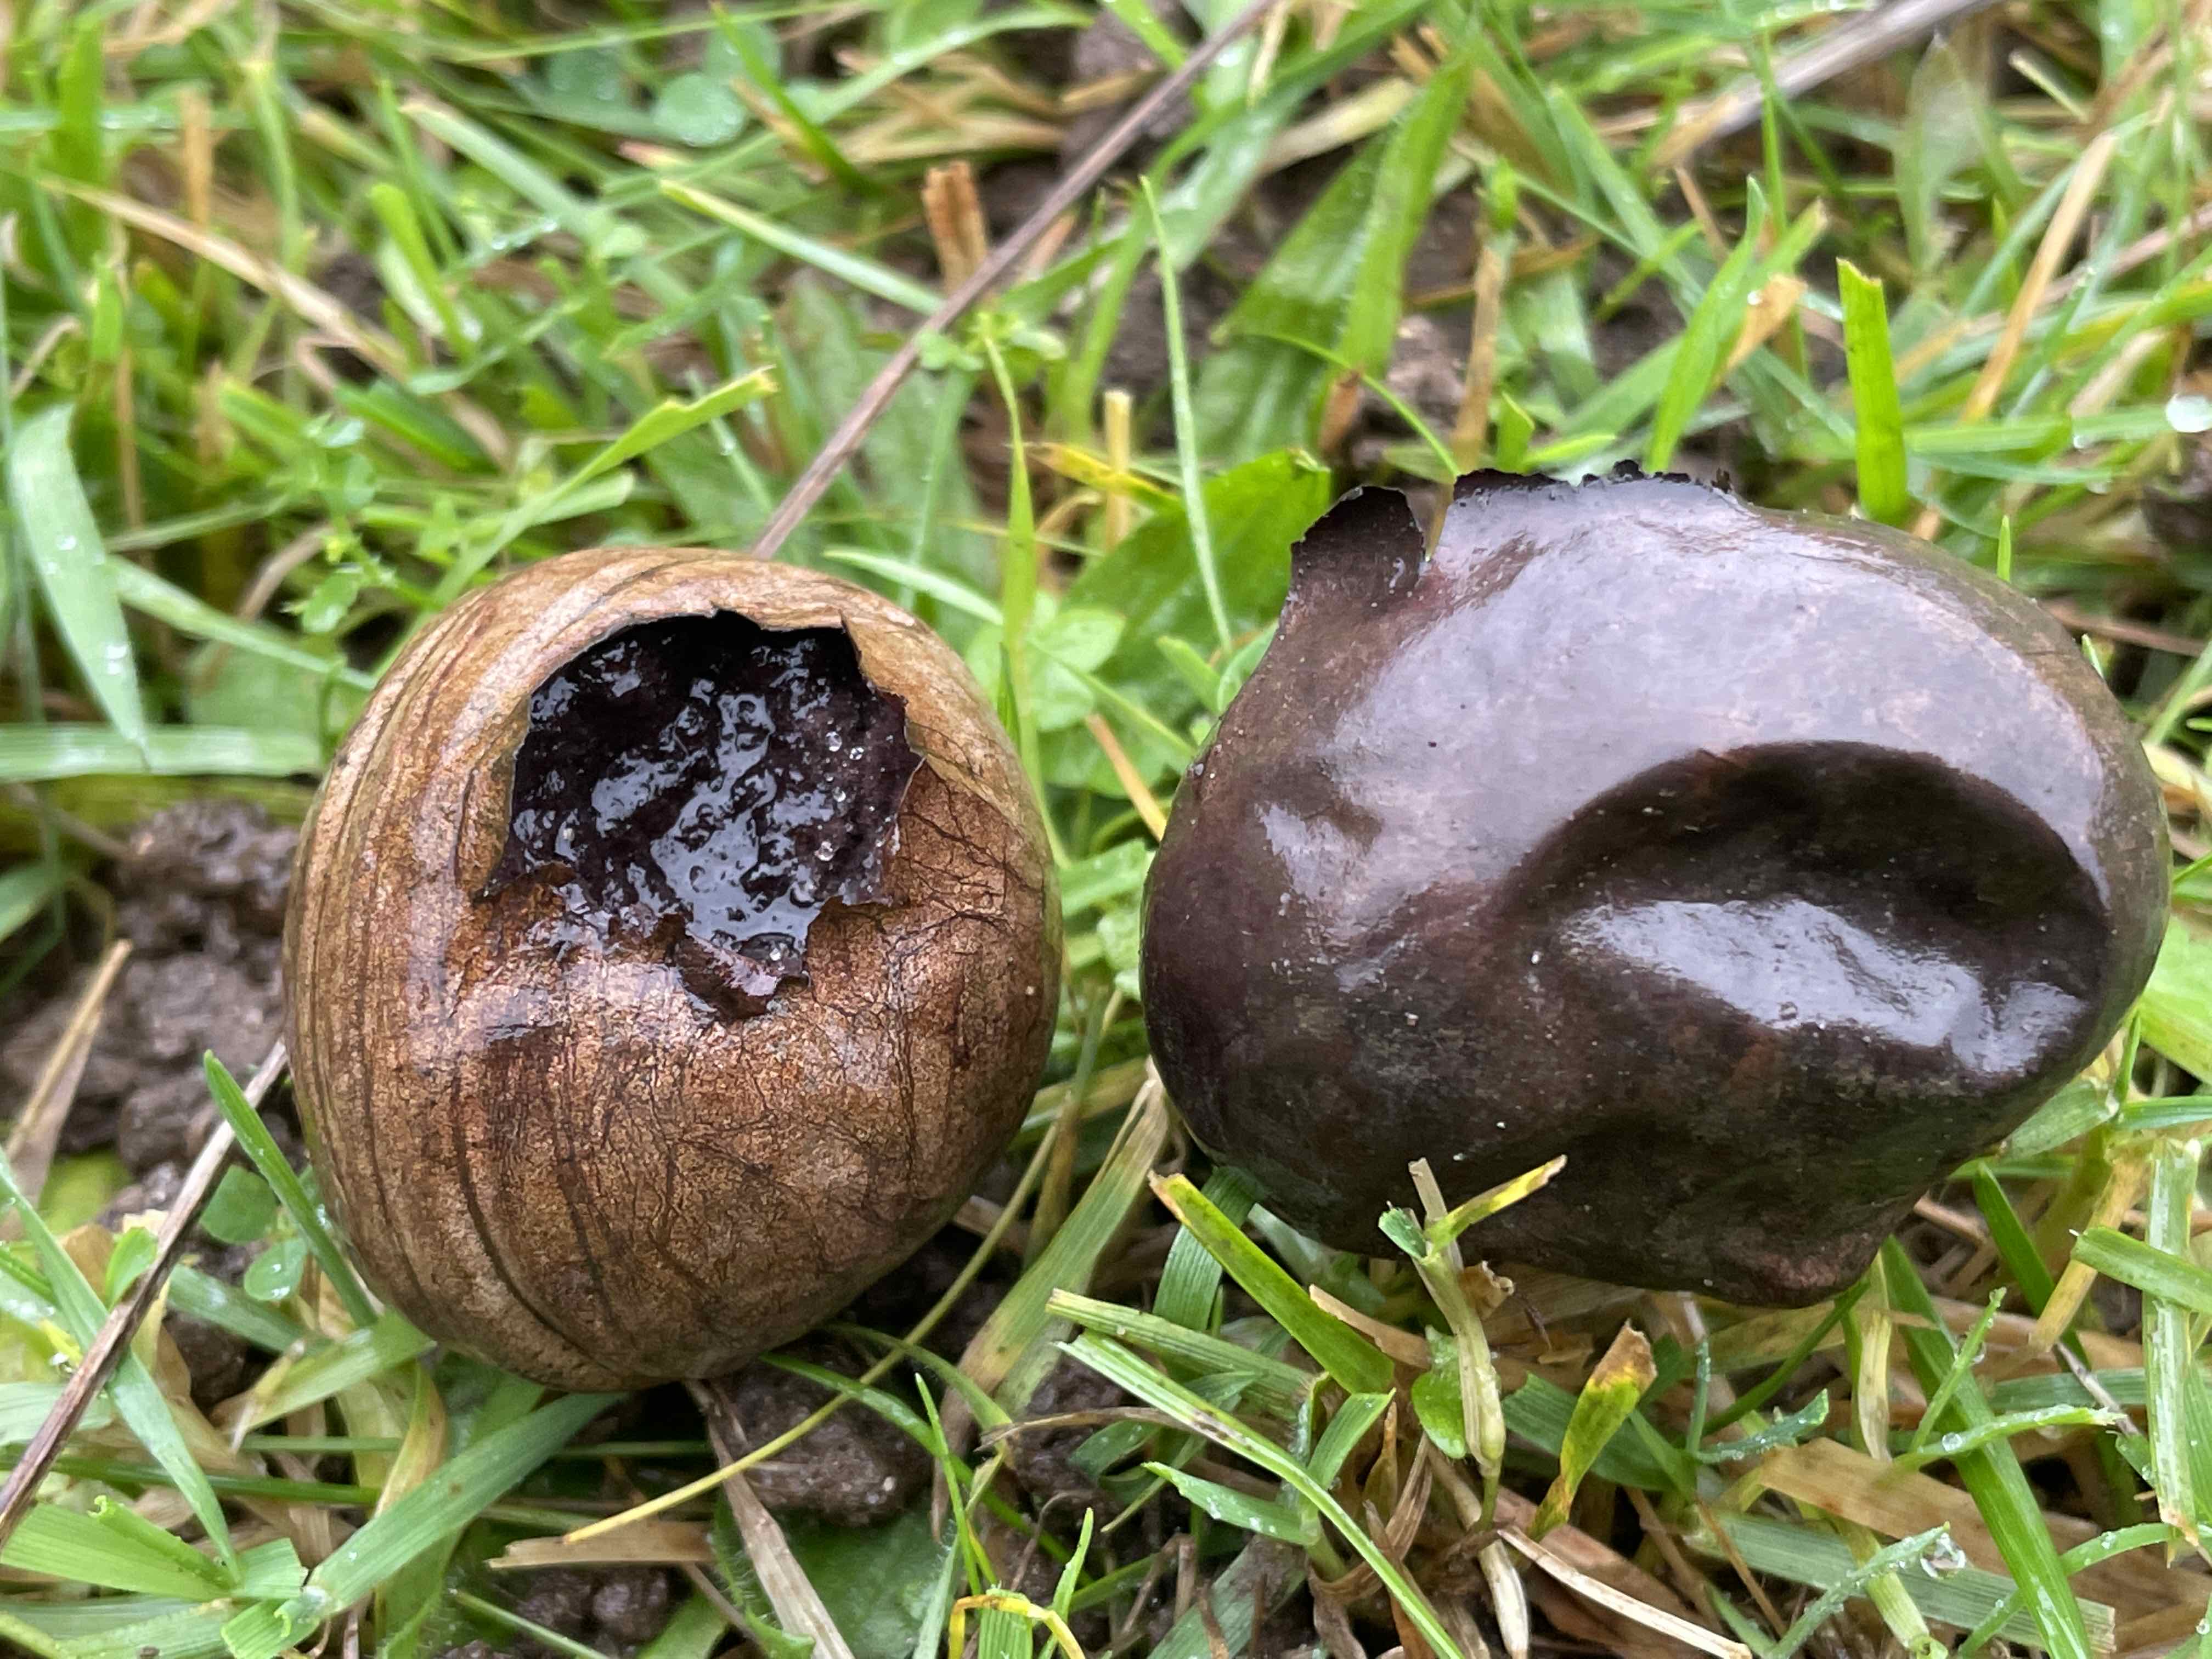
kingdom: Fungi
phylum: Basidiomycota
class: Agaricomycetes
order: Agaricales
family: Lycoperdaceae
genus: Bovista
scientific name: Bovista nigrescens
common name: sortagtig bovist
